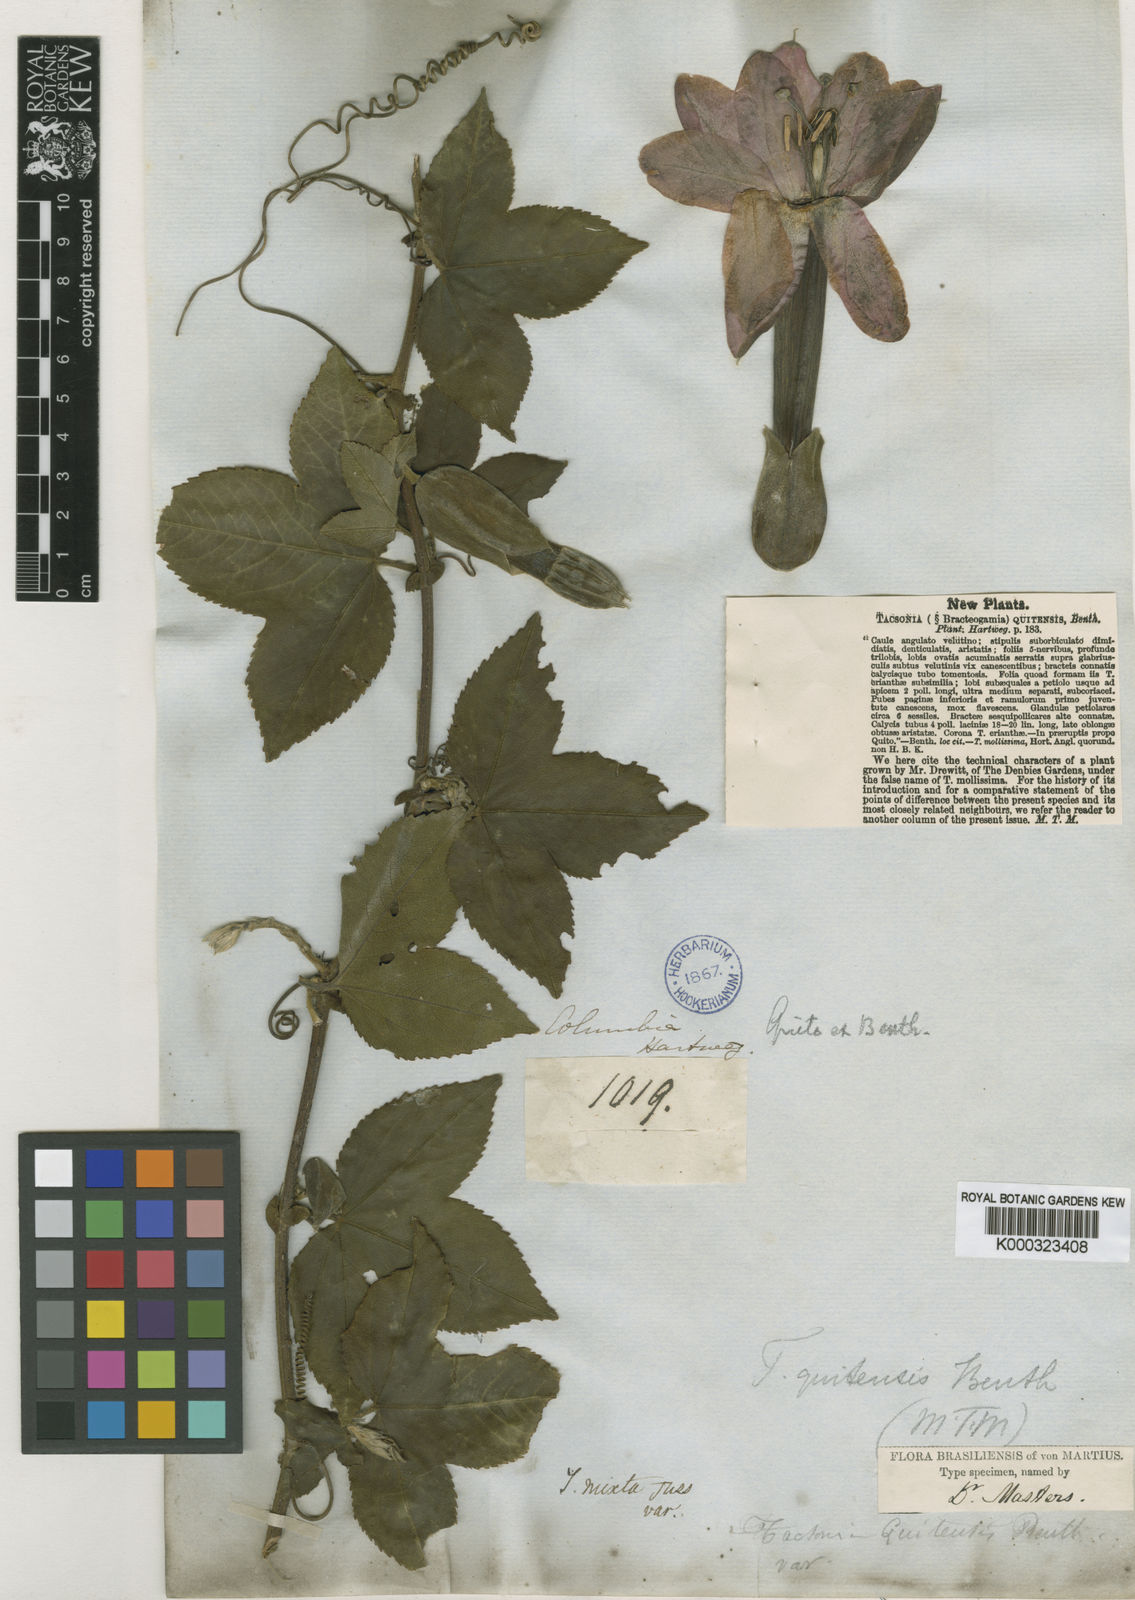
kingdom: Plantae
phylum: Tracheophyta
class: Magnoliopsida
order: Malpighiales
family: Passifloraceae
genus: Passiflora
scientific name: Passiflora mixta
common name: Passion flower
